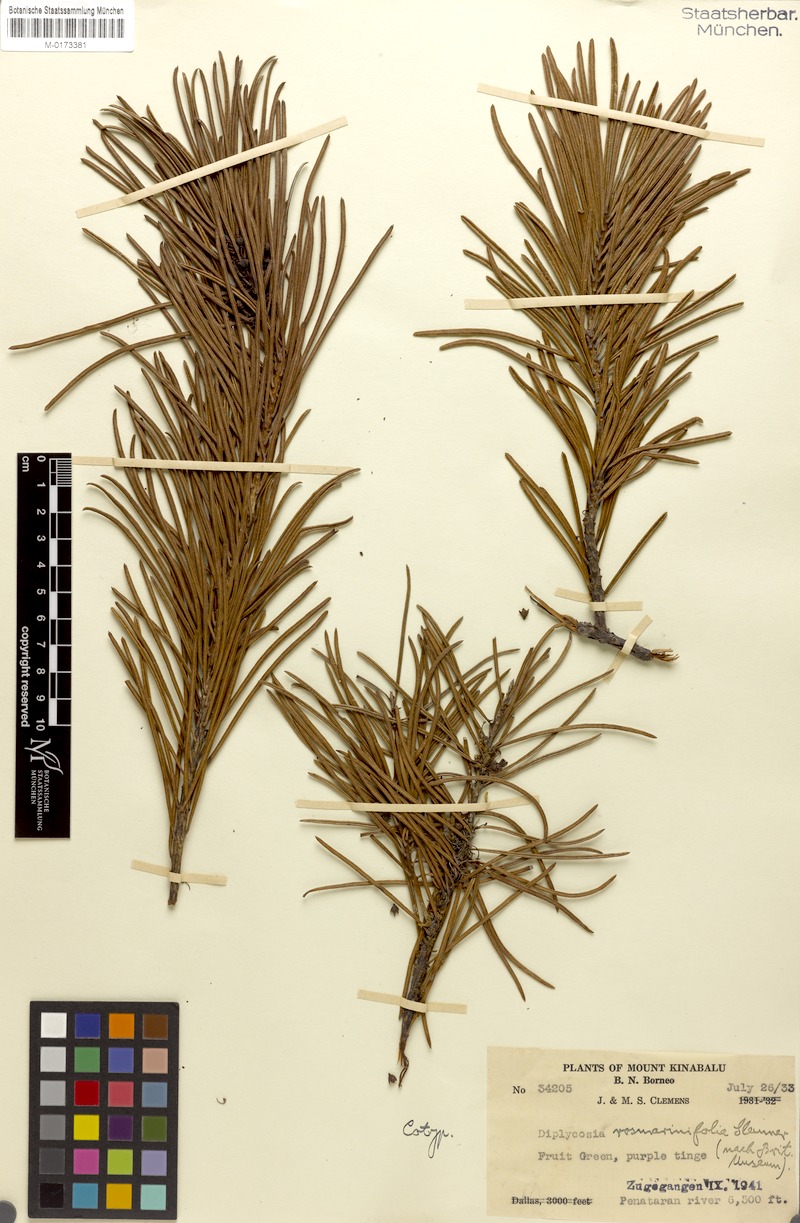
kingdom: Plantae
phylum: Tracheophyta
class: Magnoliopsida
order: Ericales
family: Ericaceae
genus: Gaultheria
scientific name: Gaultheria rosmarinifolia
